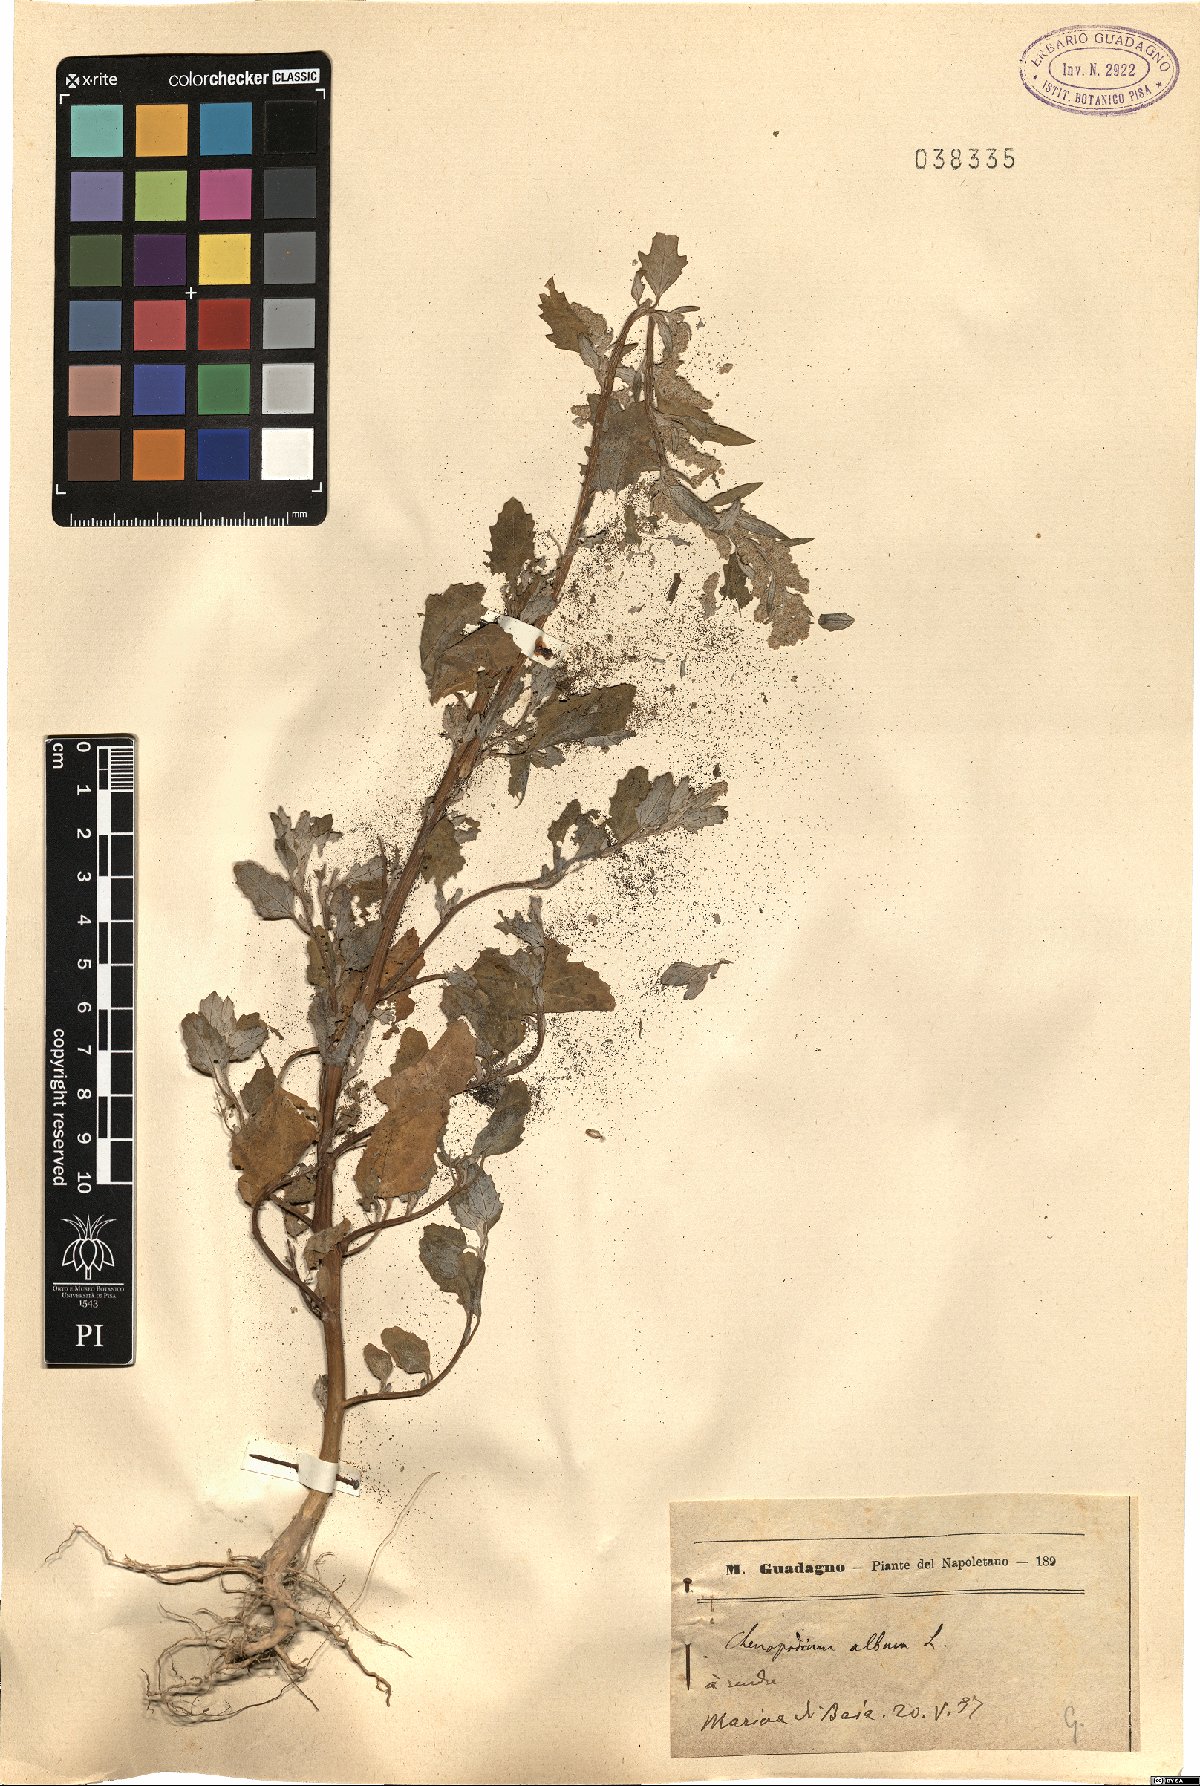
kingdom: Plantae
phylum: Tracheophyta
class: Magnoliopsida
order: Caryophyllales
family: Amaranthaceae
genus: Chenopodium
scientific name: Chenopodium album
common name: Fat-hen
